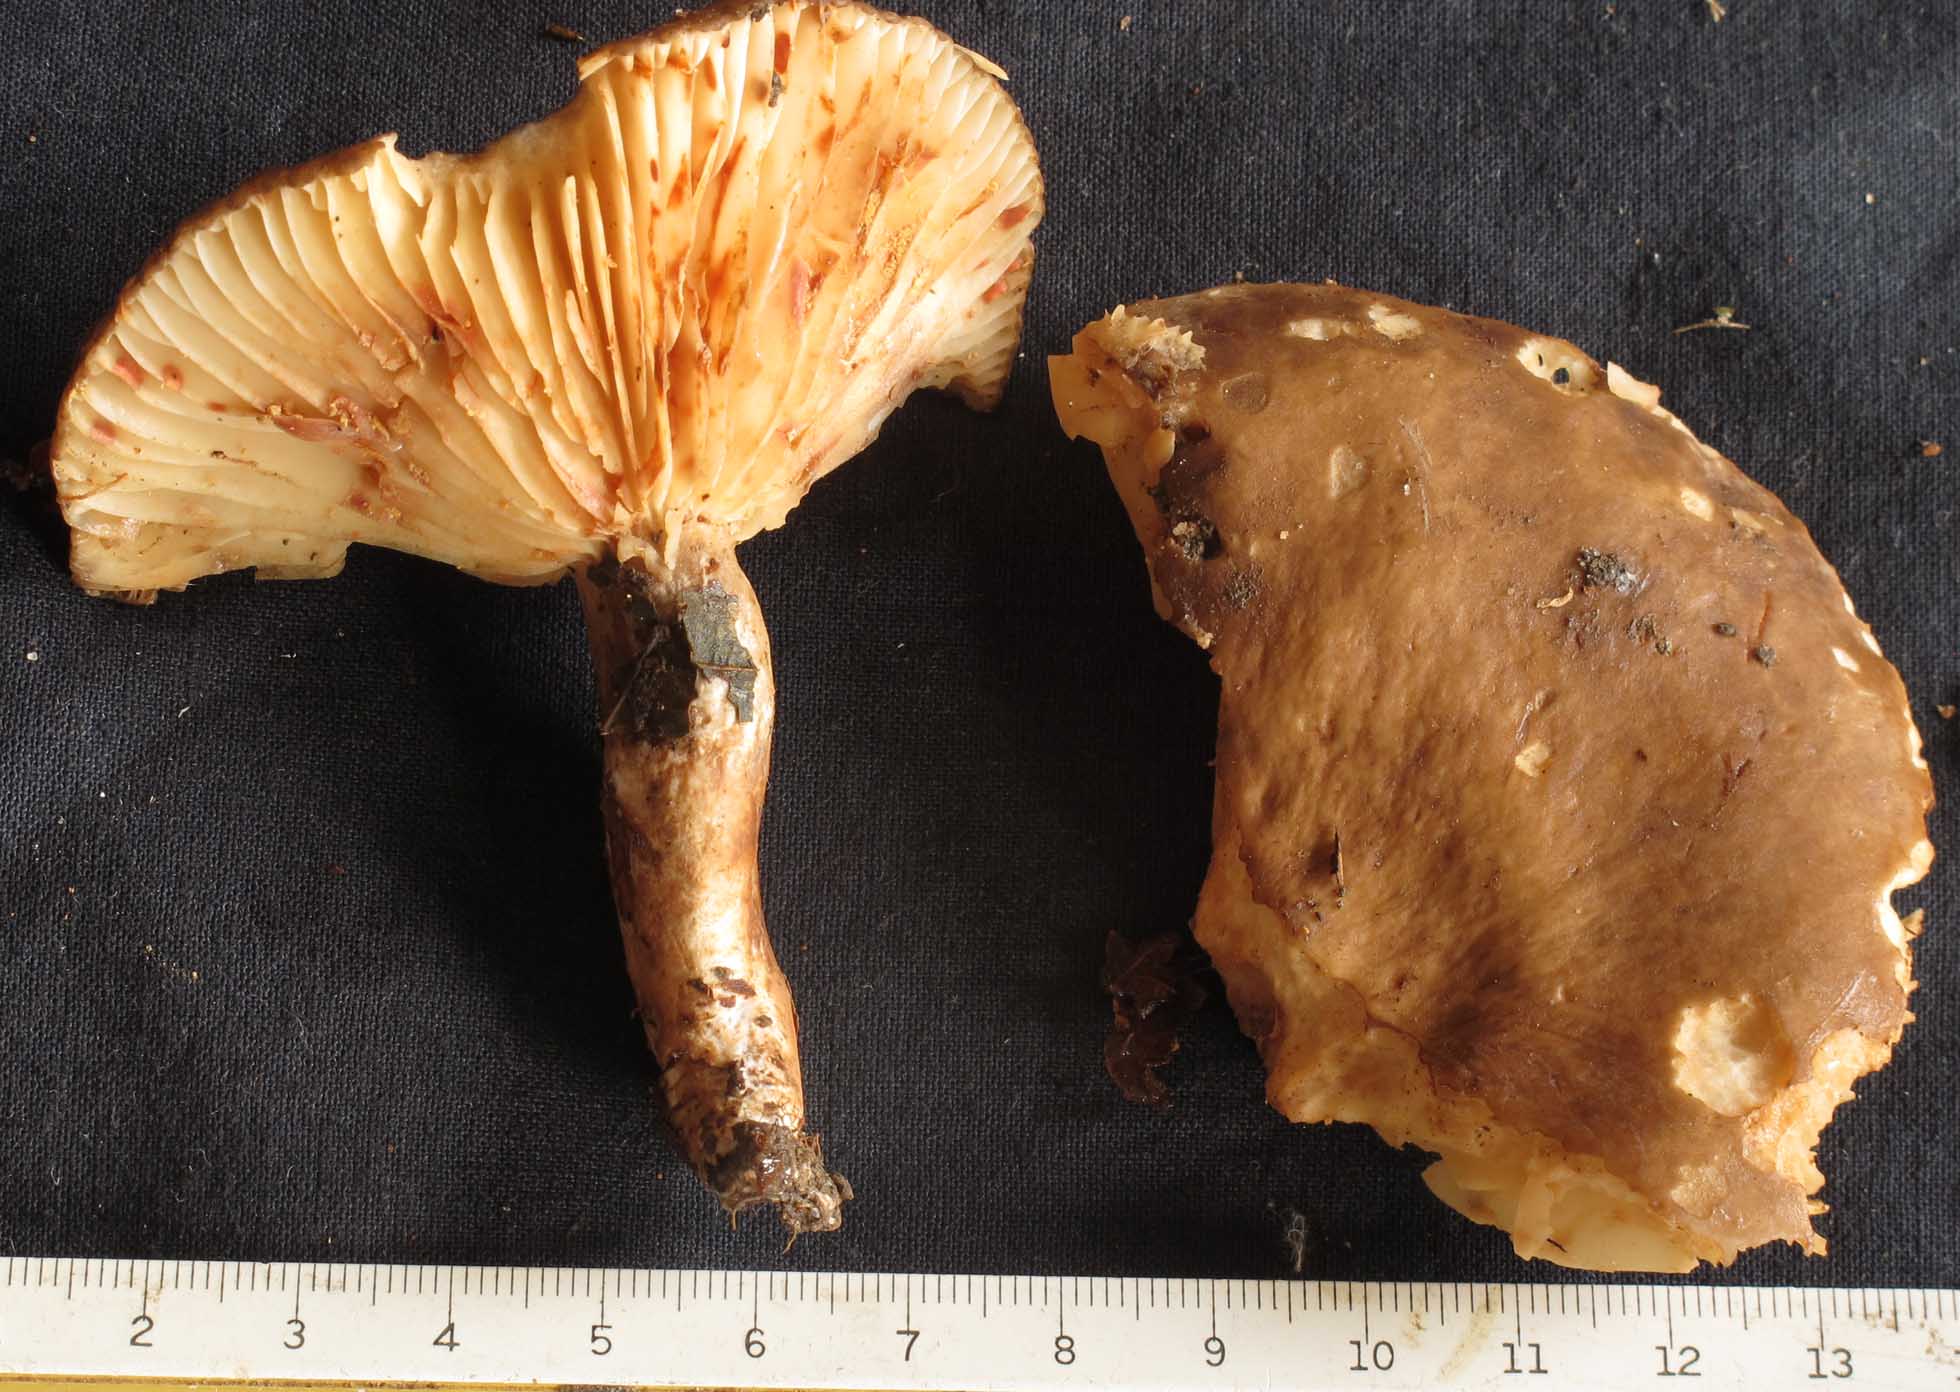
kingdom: Fungi
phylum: Basidiomycota
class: Agaricomycetes
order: Russulales
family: Russulaceae
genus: Lactarius
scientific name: Lactarius romagnesii
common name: fjernbladet mælkehat
